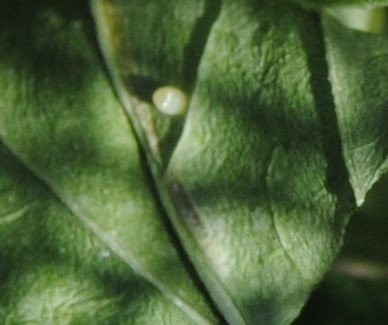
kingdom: Animalia
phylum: Arthropoda
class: Insecta
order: Lepidoptera
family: Nymphalidae
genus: Danaus
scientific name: Danaus plexippus
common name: Monarch
